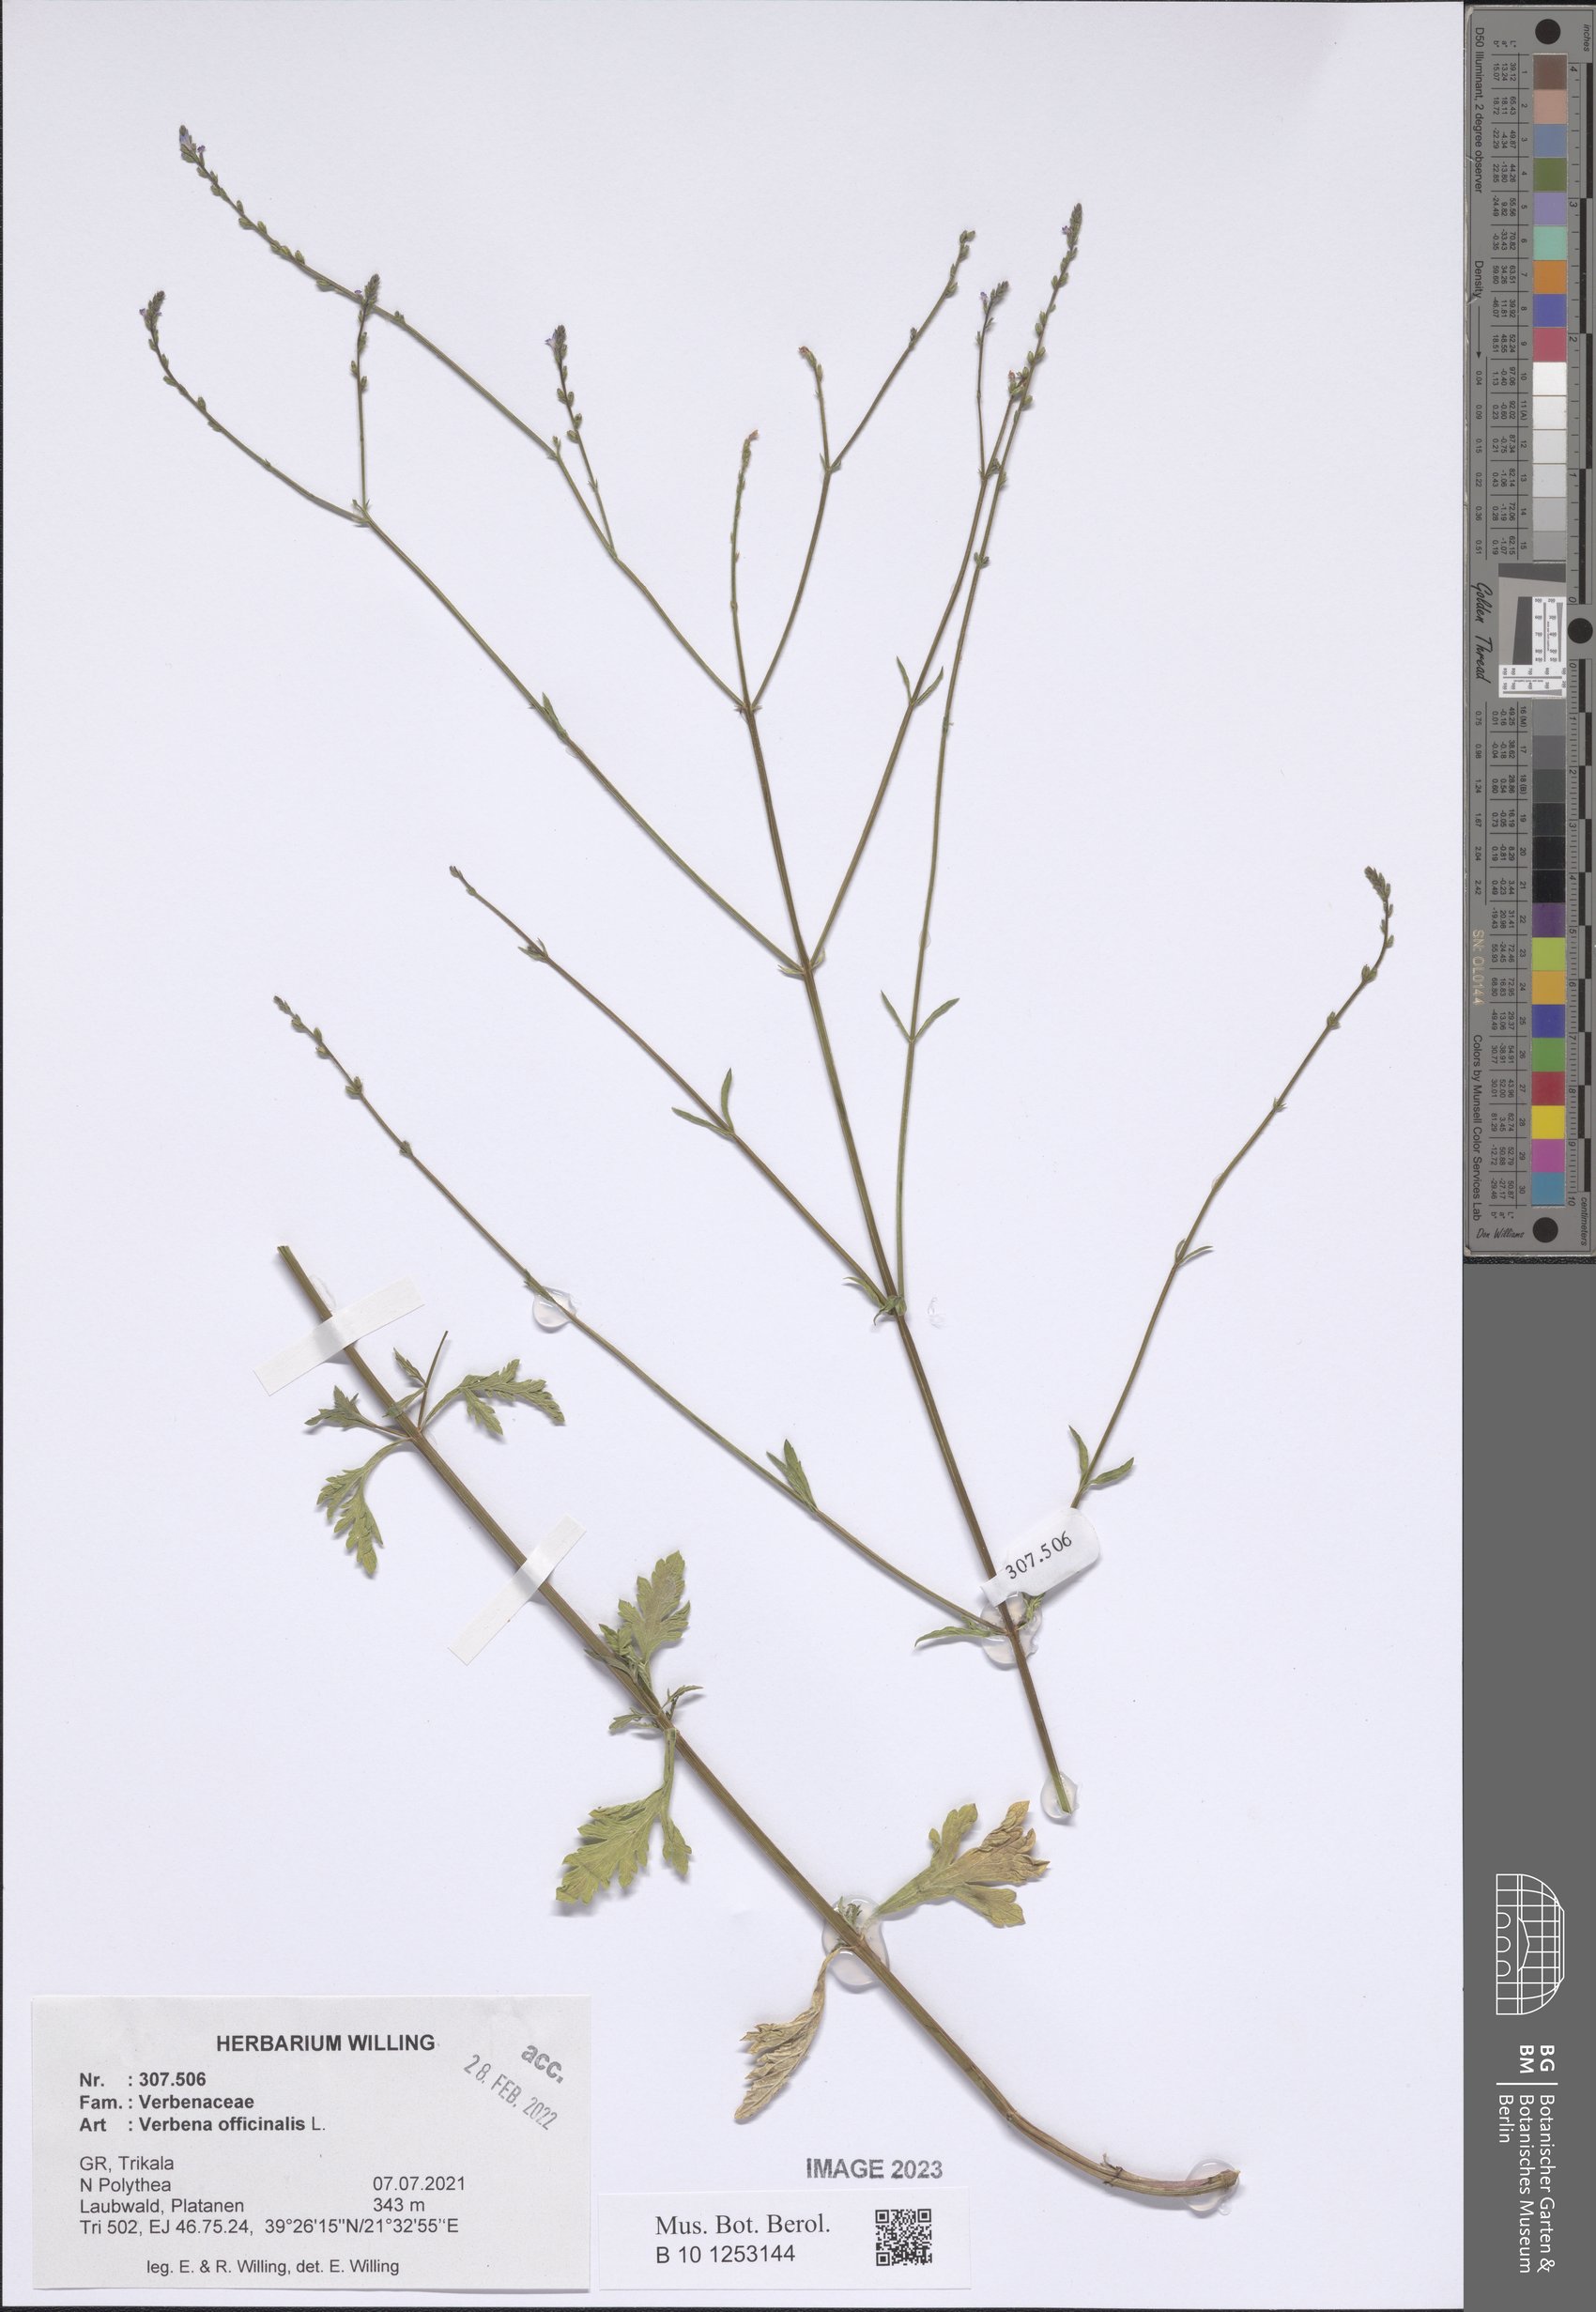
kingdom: Plantae
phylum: Tracheophyta
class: Magnoliopsida
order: Lamiales
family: Verbenaceae
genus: Verbena
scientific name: Verbena officinalis
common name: Vervain
